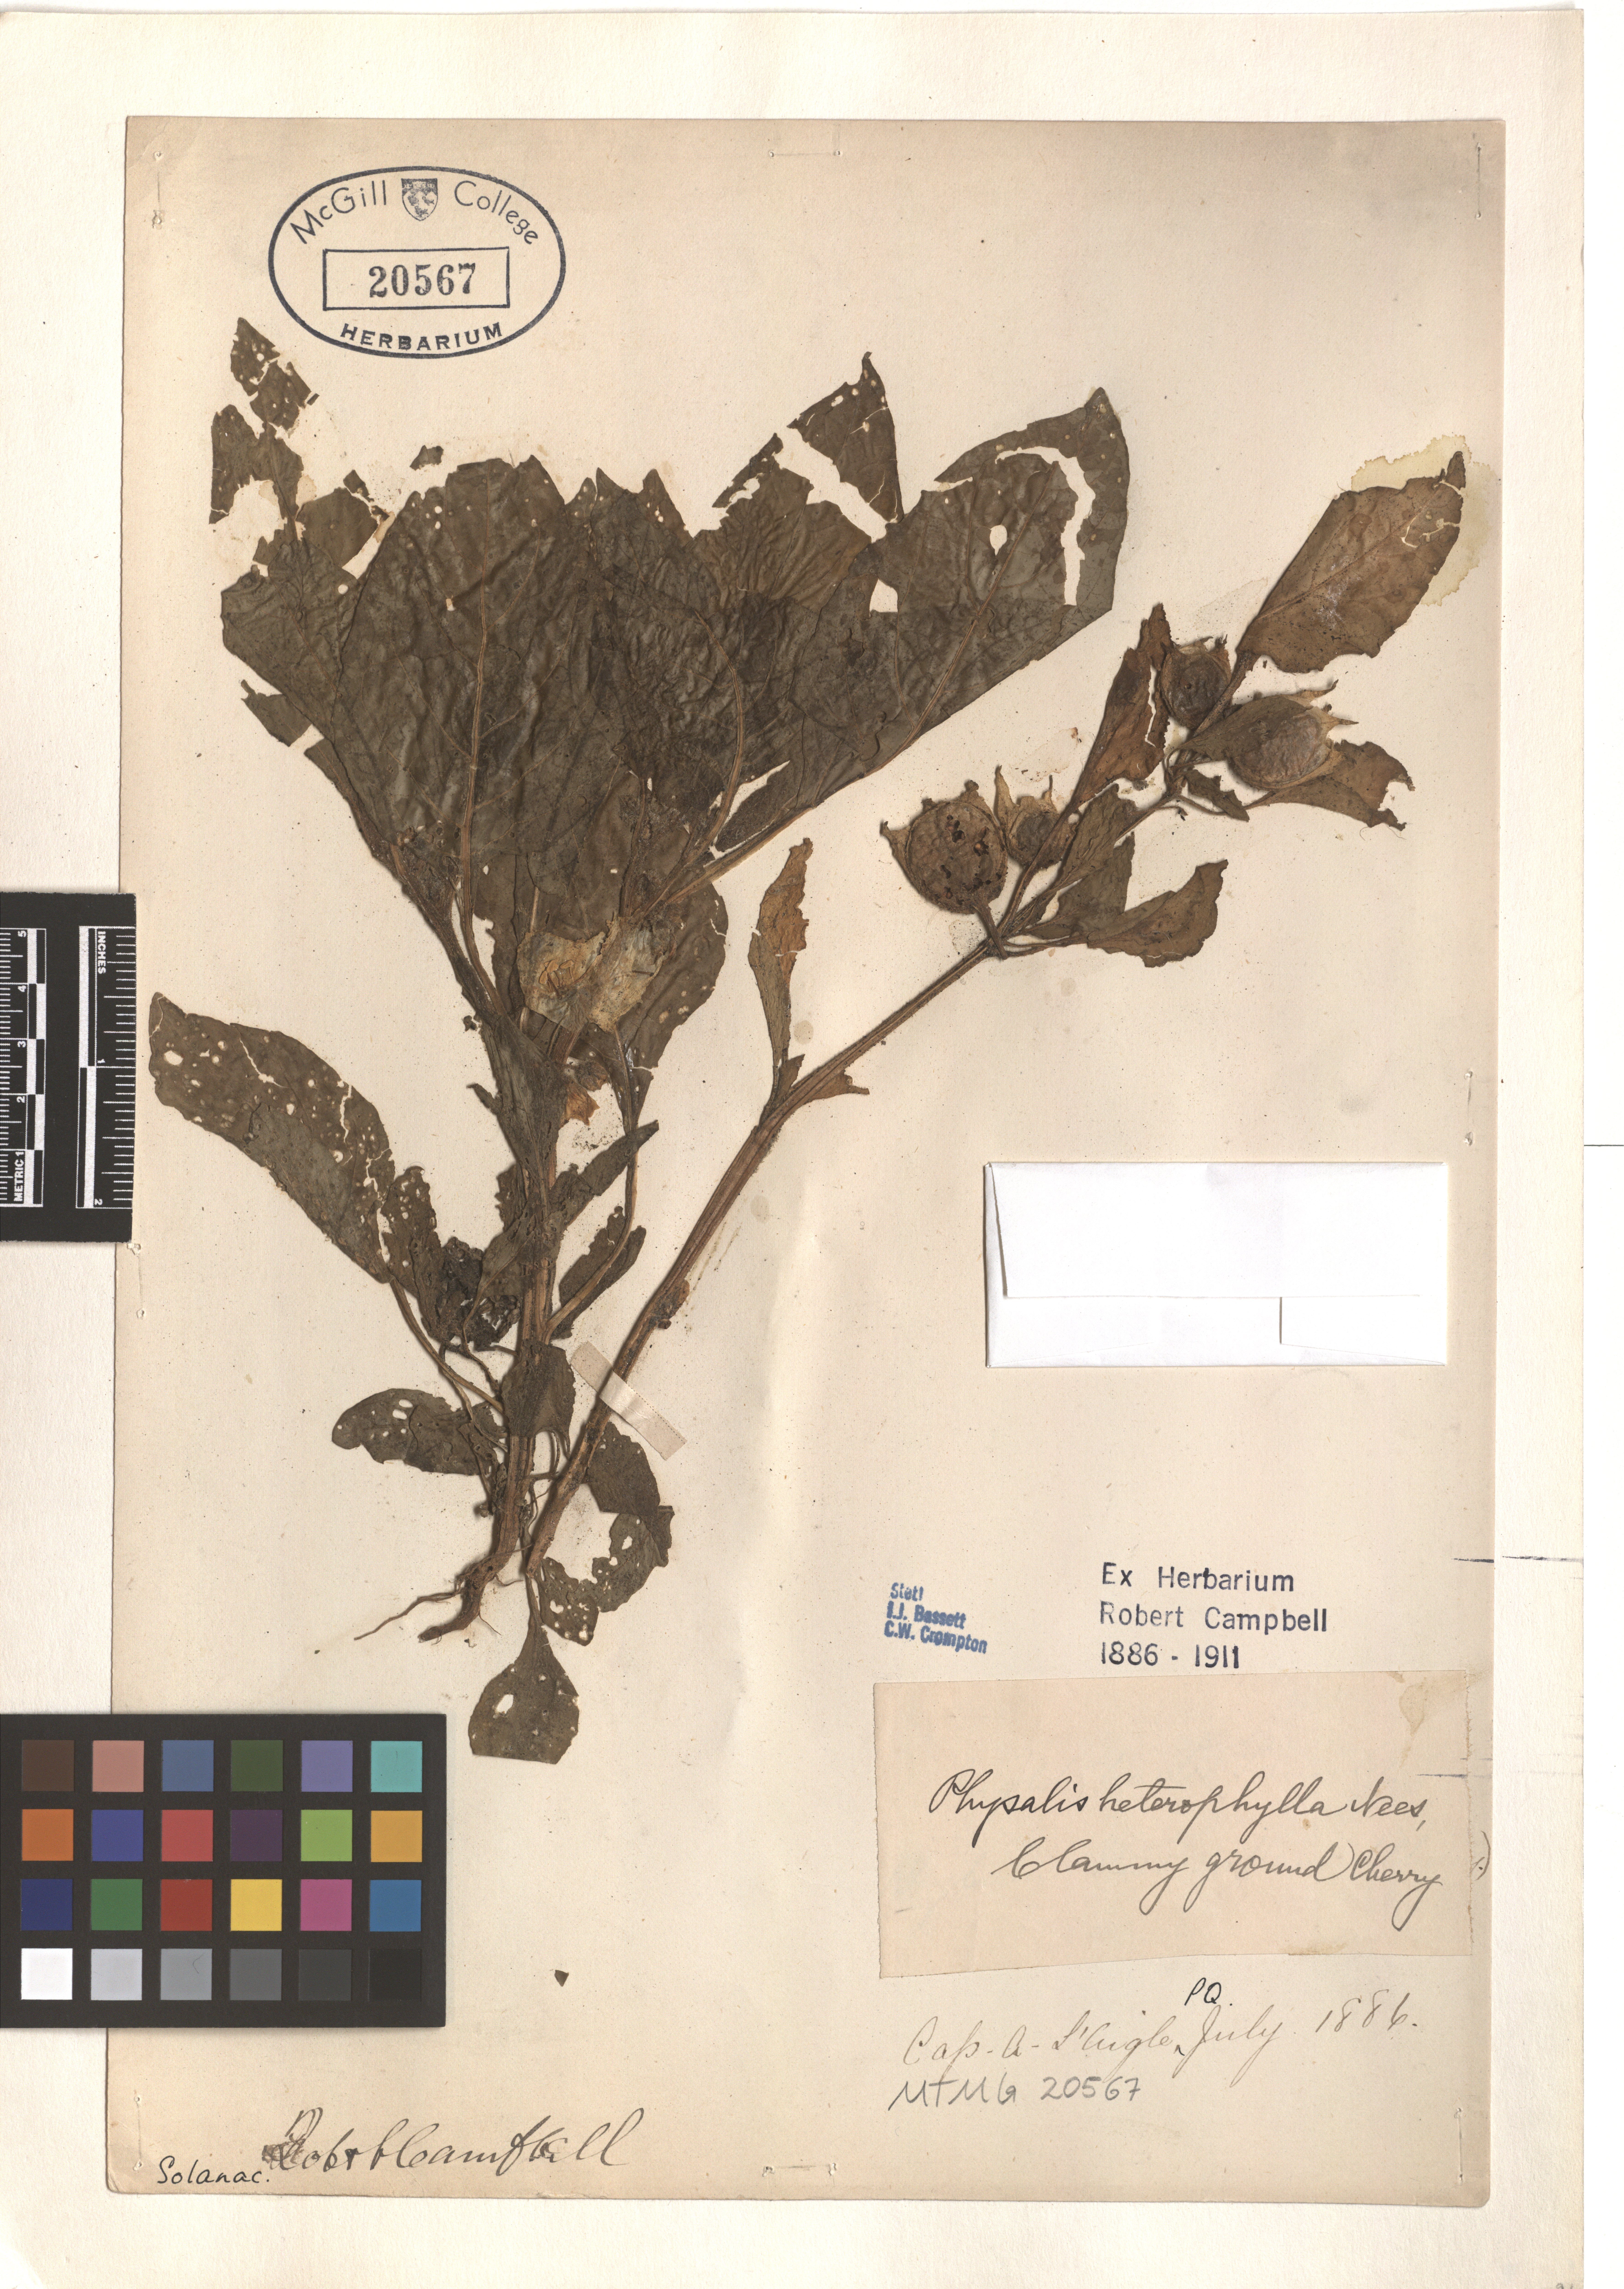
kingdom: Plantae
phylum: Tracheophyta
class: Magnoliopsida
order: Solanales
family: Solanaceae
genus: Physalis
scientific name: Physalis heterophylla
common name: Clammy ground-cherry
